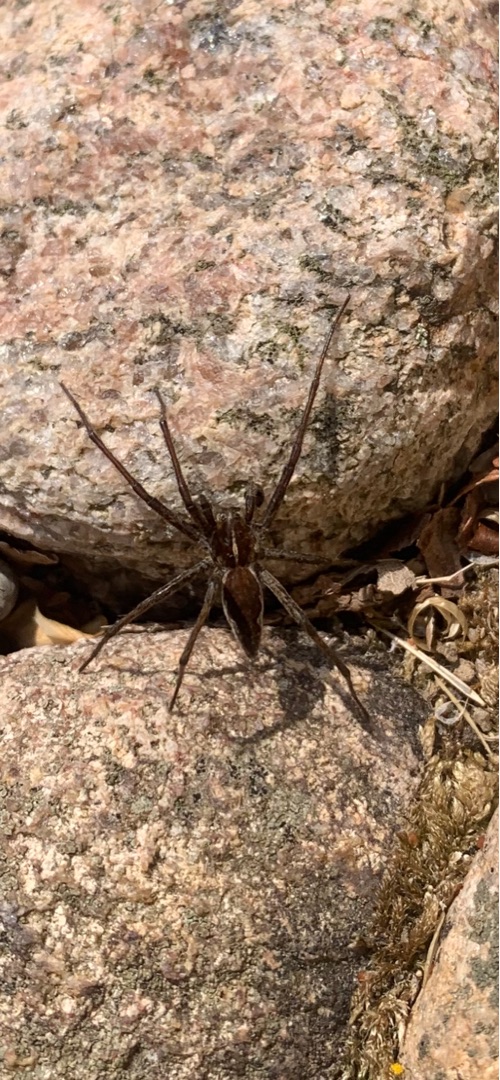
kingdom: Animalia
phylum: Arthropoda
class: Arachnida
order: Araneae
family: Pisauridae
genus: Pisaura
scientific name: Pisaura mirabilis
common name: Almindelig rovedderkop
